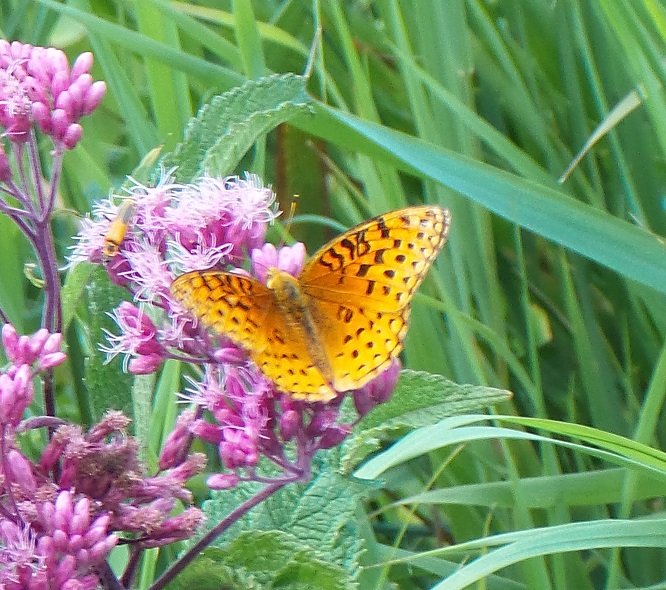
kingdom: Animalia
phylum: Arthropoda
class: Insecta
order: Lepidoptera
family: Nymphalidae
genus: Speyeria
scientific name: Speyeria aphrodite
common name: Aphrodite Fritillary
